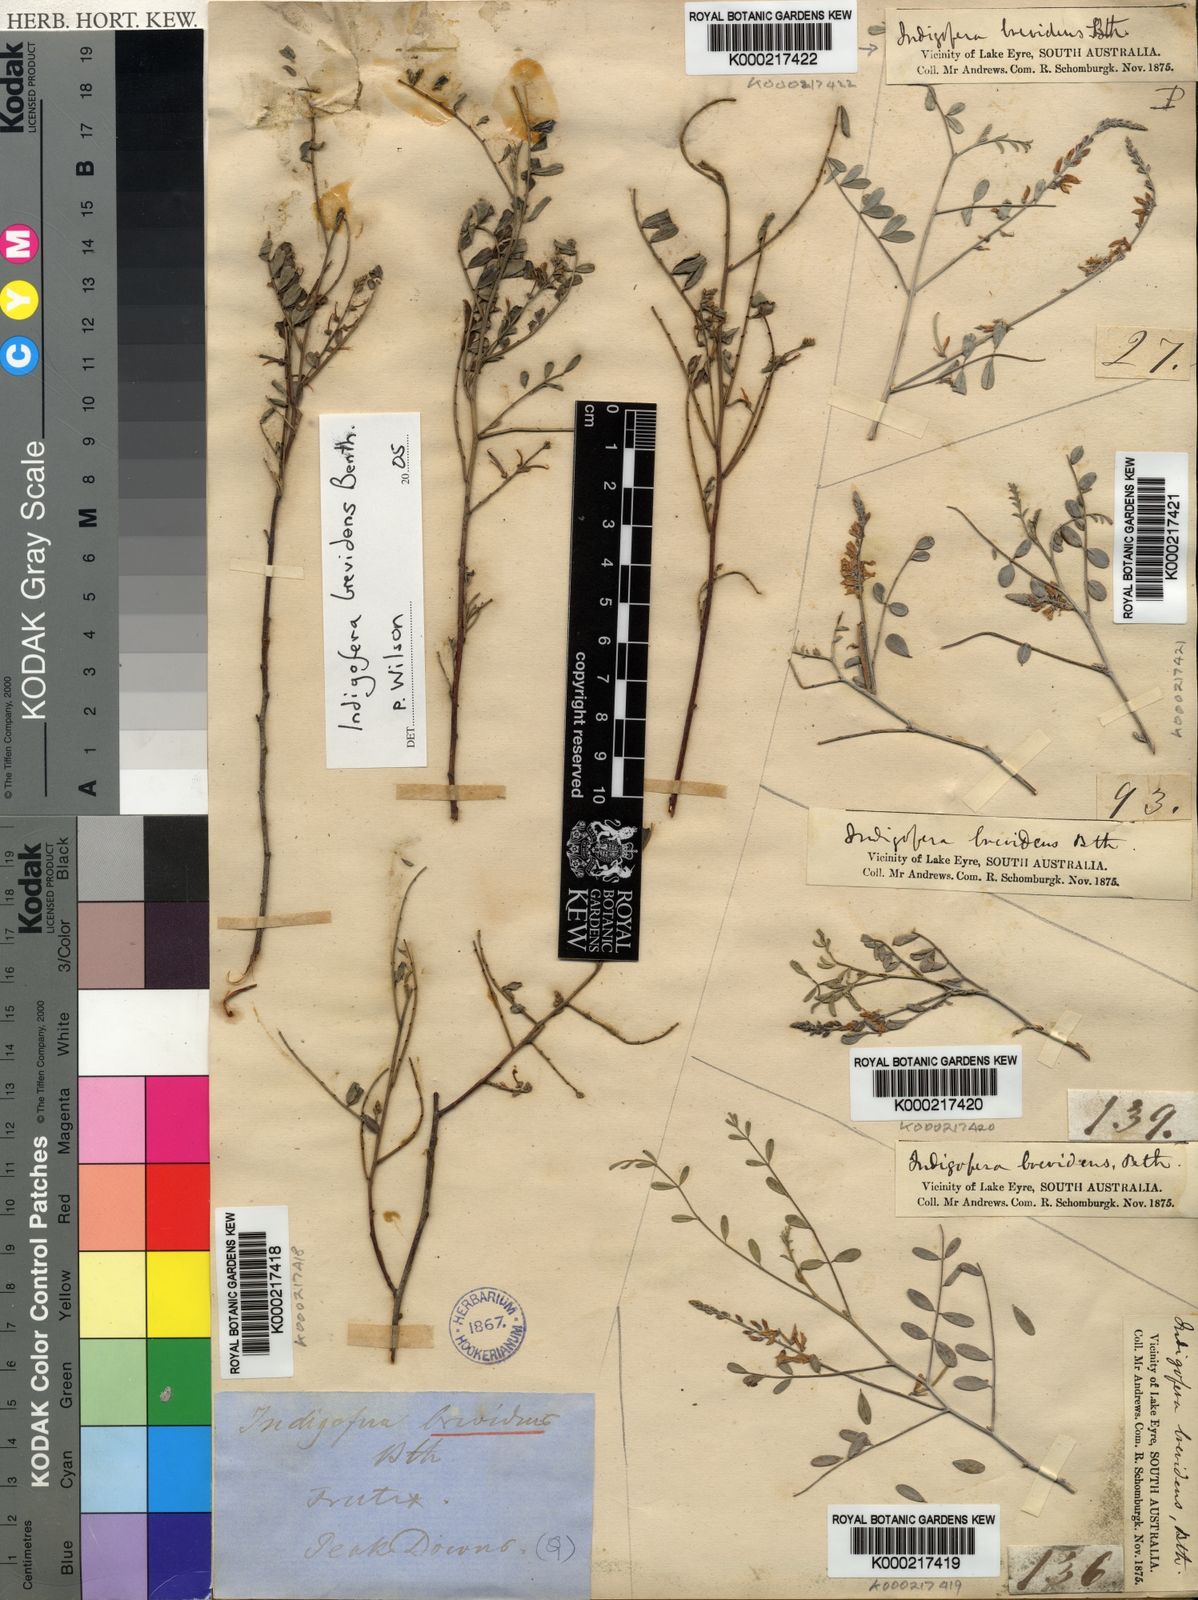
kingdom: Plantae
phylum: Tracheophyta
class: Magnoliopsida
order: Fabales
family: Fabaceae
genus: Indigofera
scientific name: Indigofera brevidens
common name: Desert indigo
